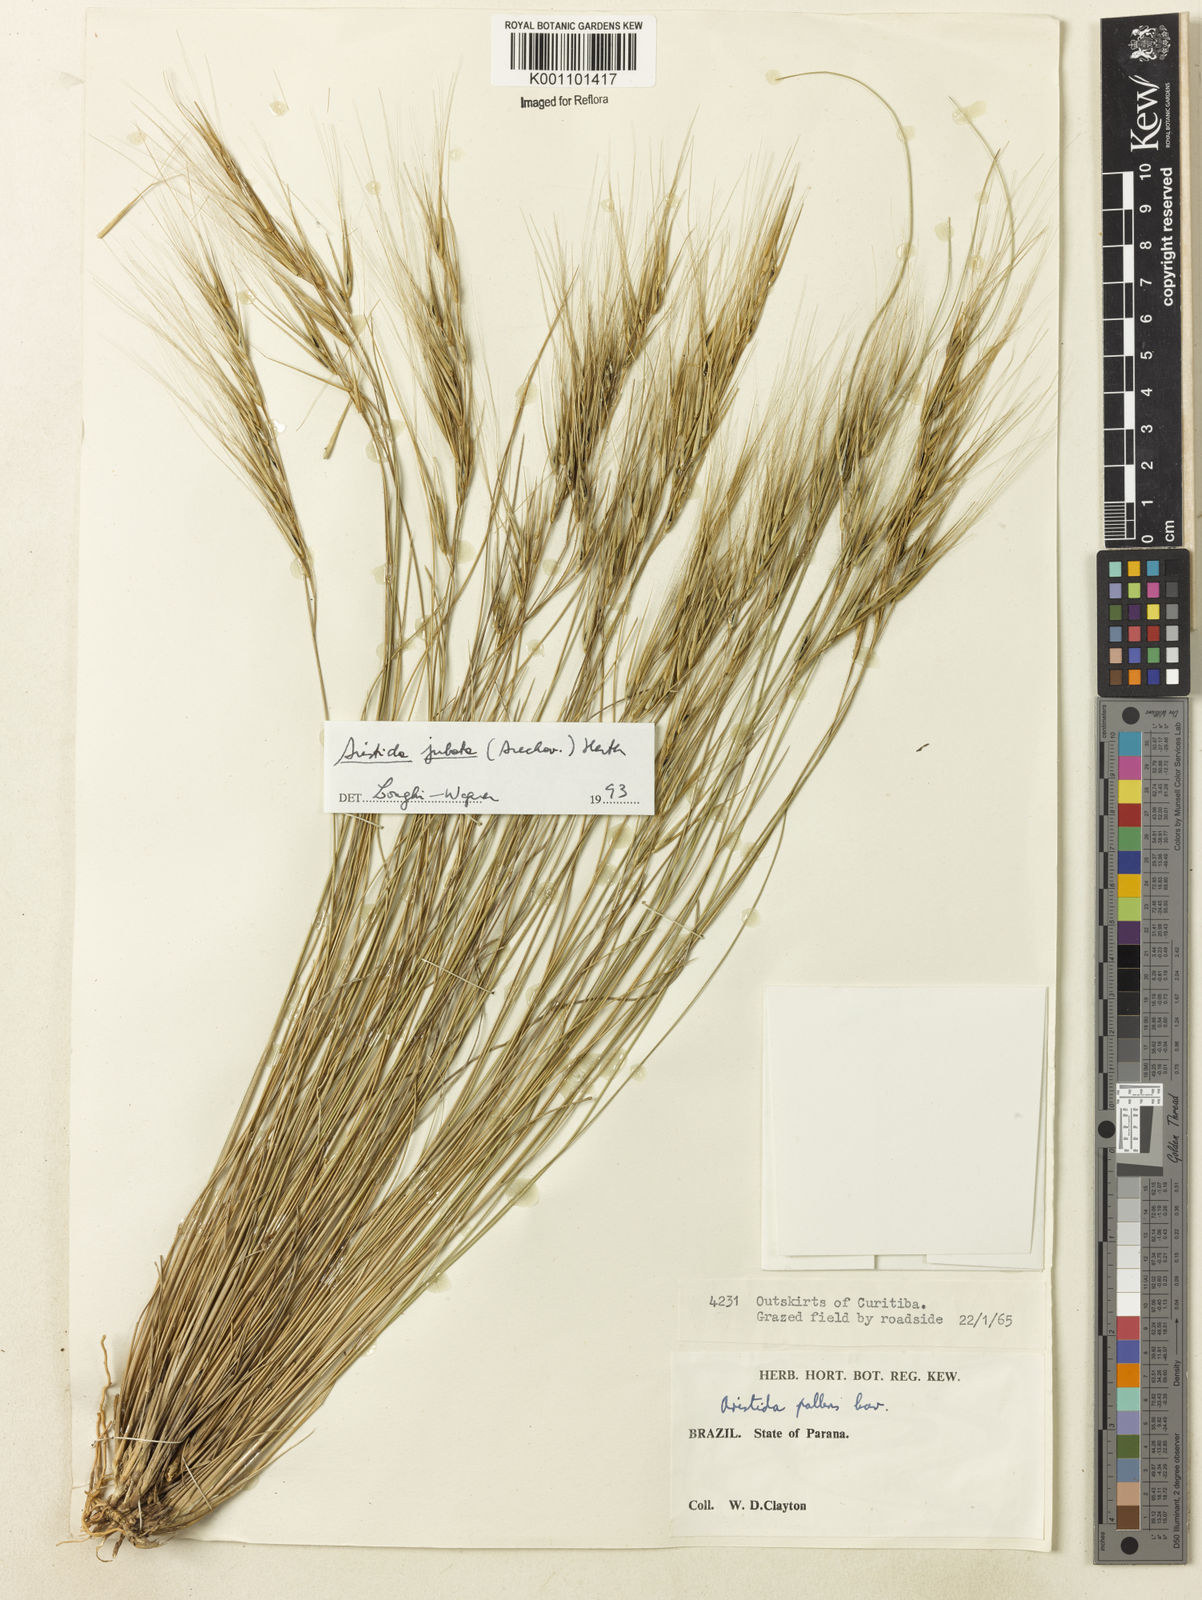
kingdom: Plantae
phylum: Tracheophyta
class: Liliopsida
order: Poales
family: Poaceae
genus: Aristida
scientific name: Aristida jubata
